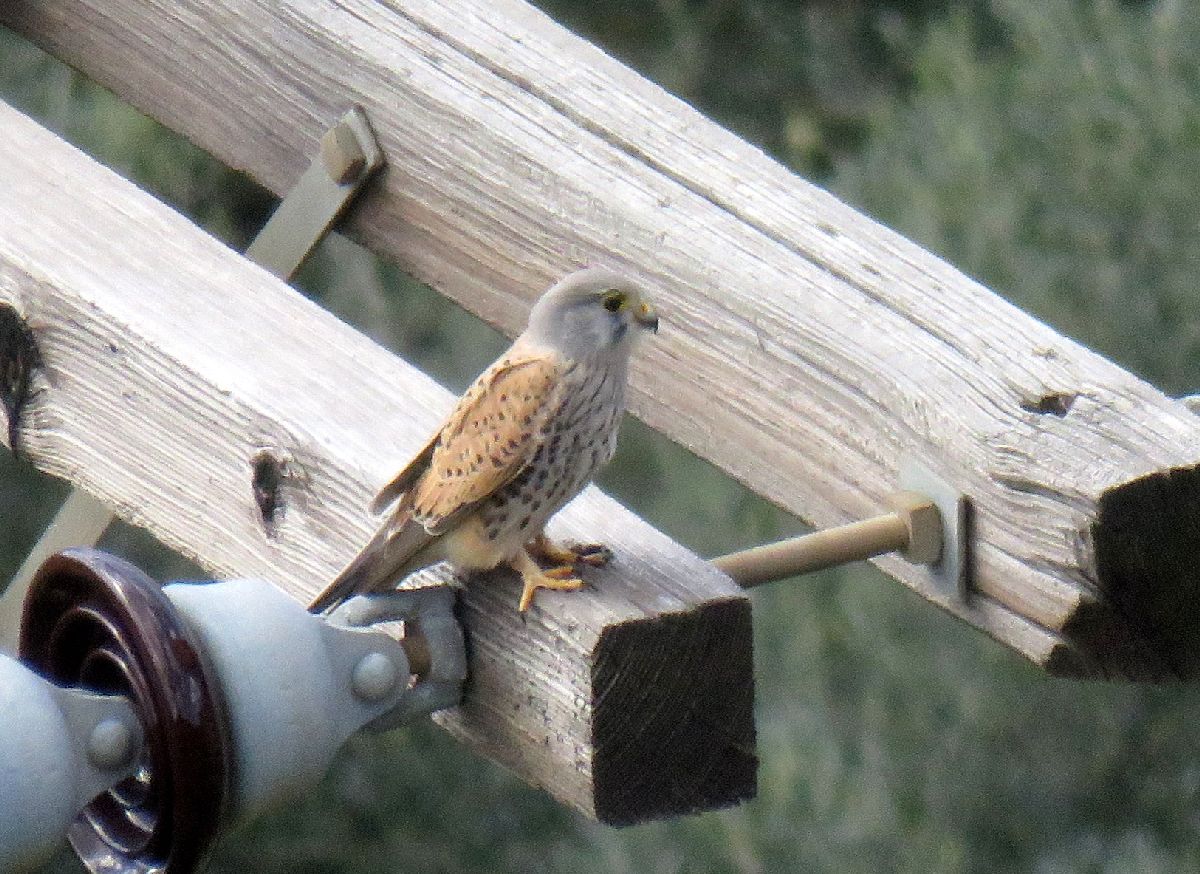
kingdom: Animalia
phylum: Chordata
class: Aves
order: Falconiformes
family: Falconidae
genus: Falco
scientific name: Falco tinnunculus
